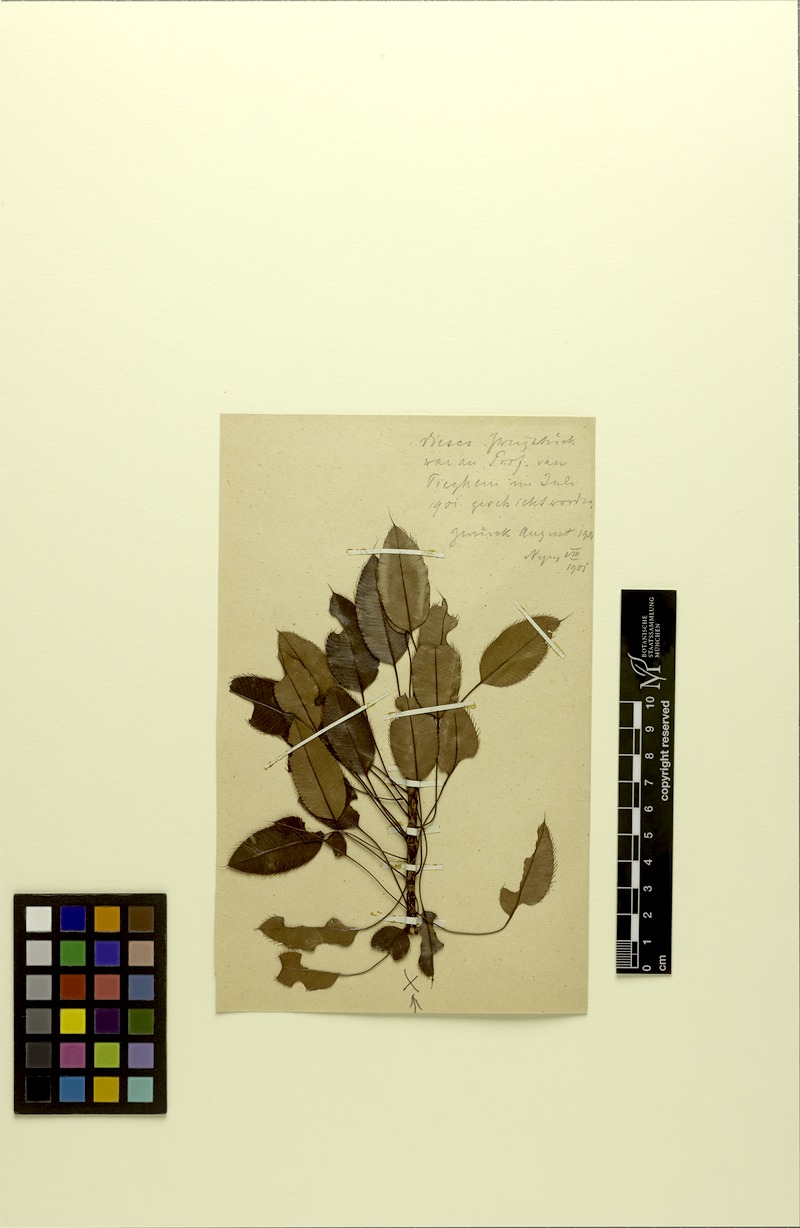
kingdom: Plantae
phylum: Tracheophyta
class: Magnoliopsida
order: Malpighiales
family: Ochnaceae
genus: Luxemburgia
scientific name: Luxemburgia ciliosa
